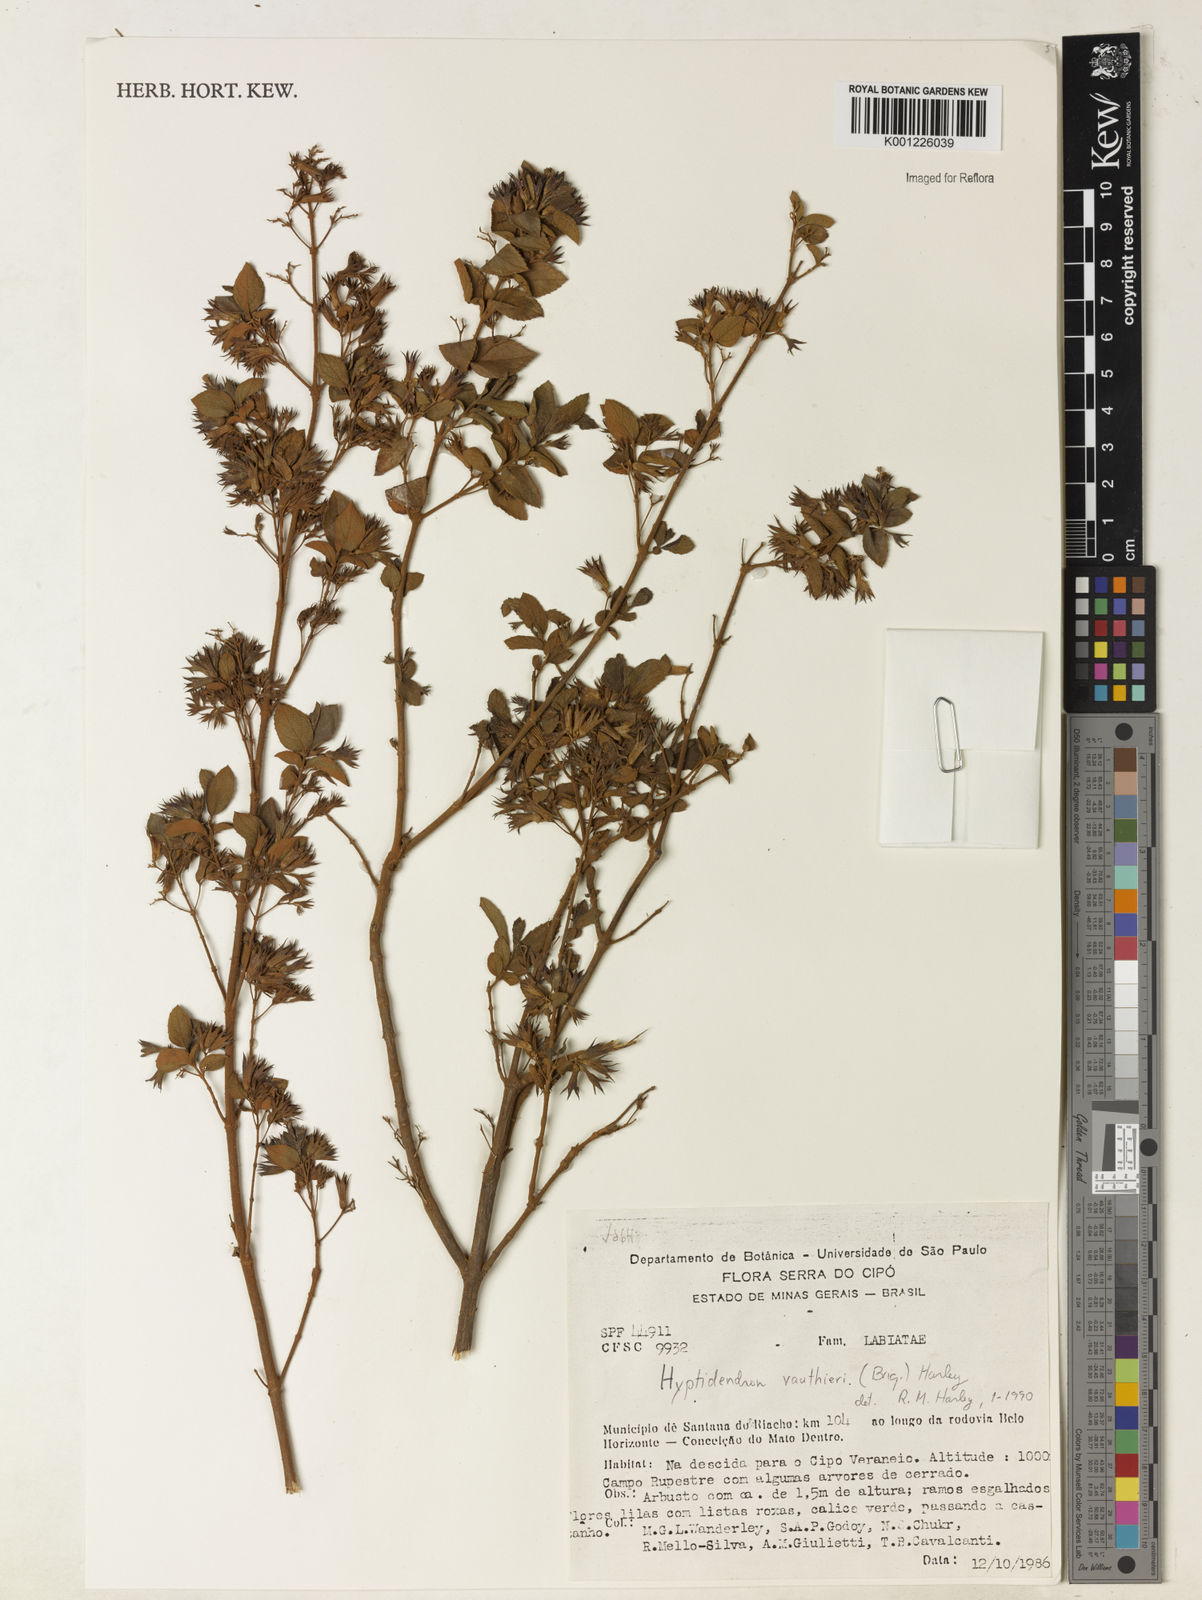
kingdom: Plantae
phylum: Tracheophyta
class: Magnoliopsida
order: Lamiales
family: Lamiaceae
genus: Hyptidendron
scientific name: Hyptidendron vauthieri
